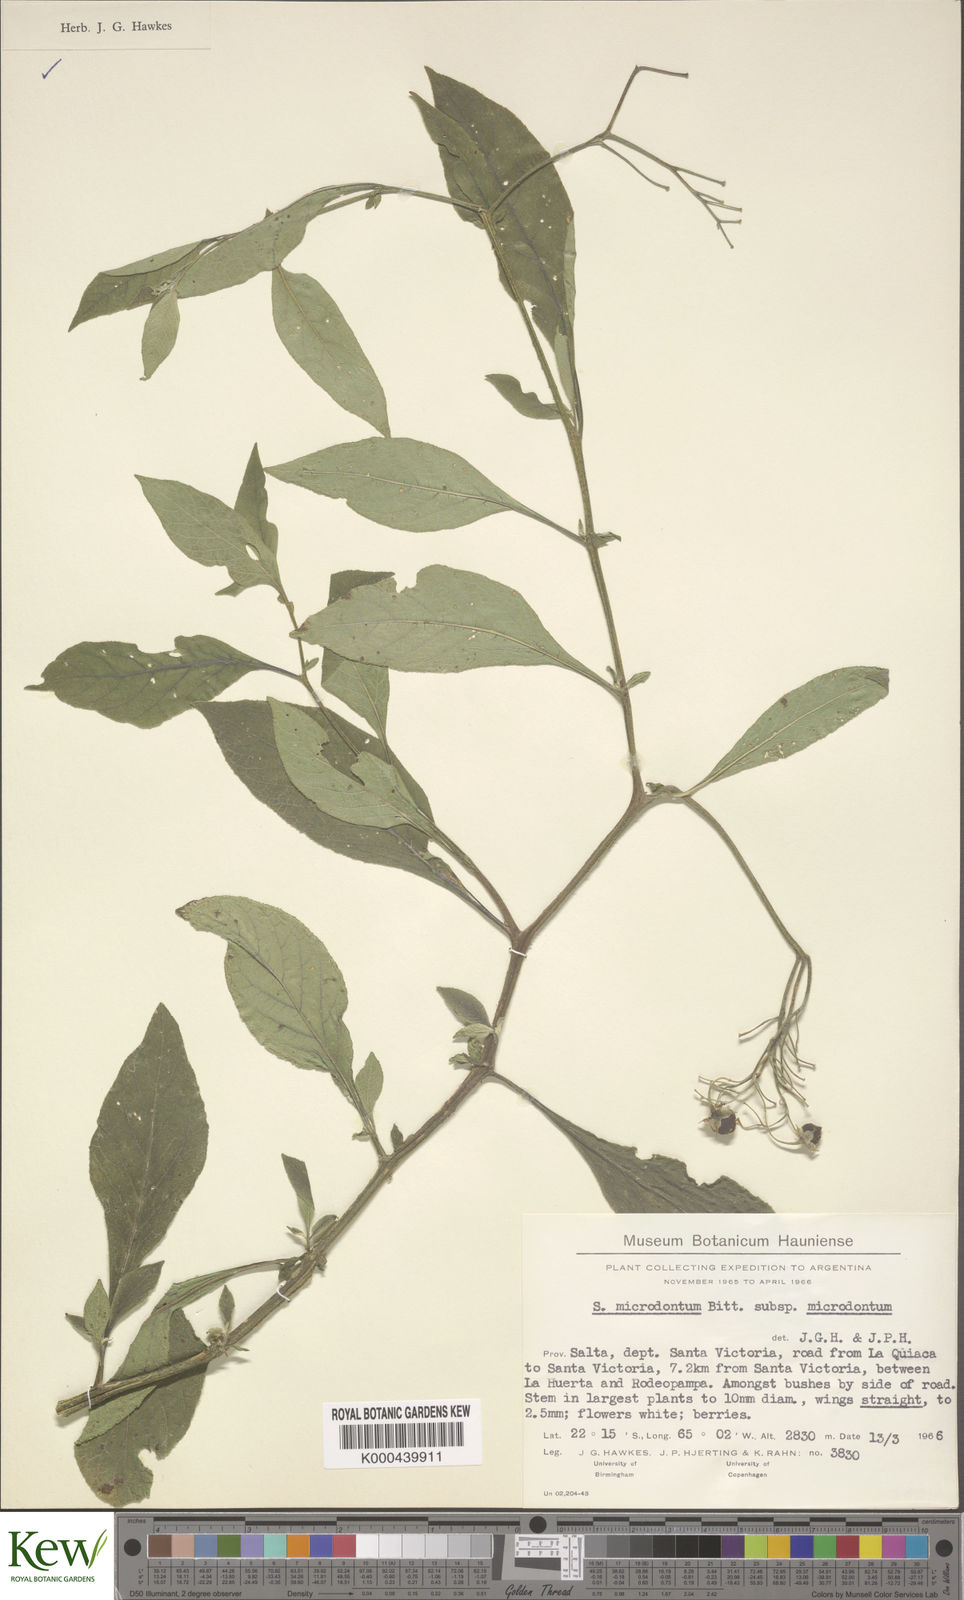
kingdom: Plantae
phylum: Tracheophyta
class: Magnoliopsida
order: Solanales
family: Solanaceae
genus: Solanum
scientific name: Solanum microdontum
